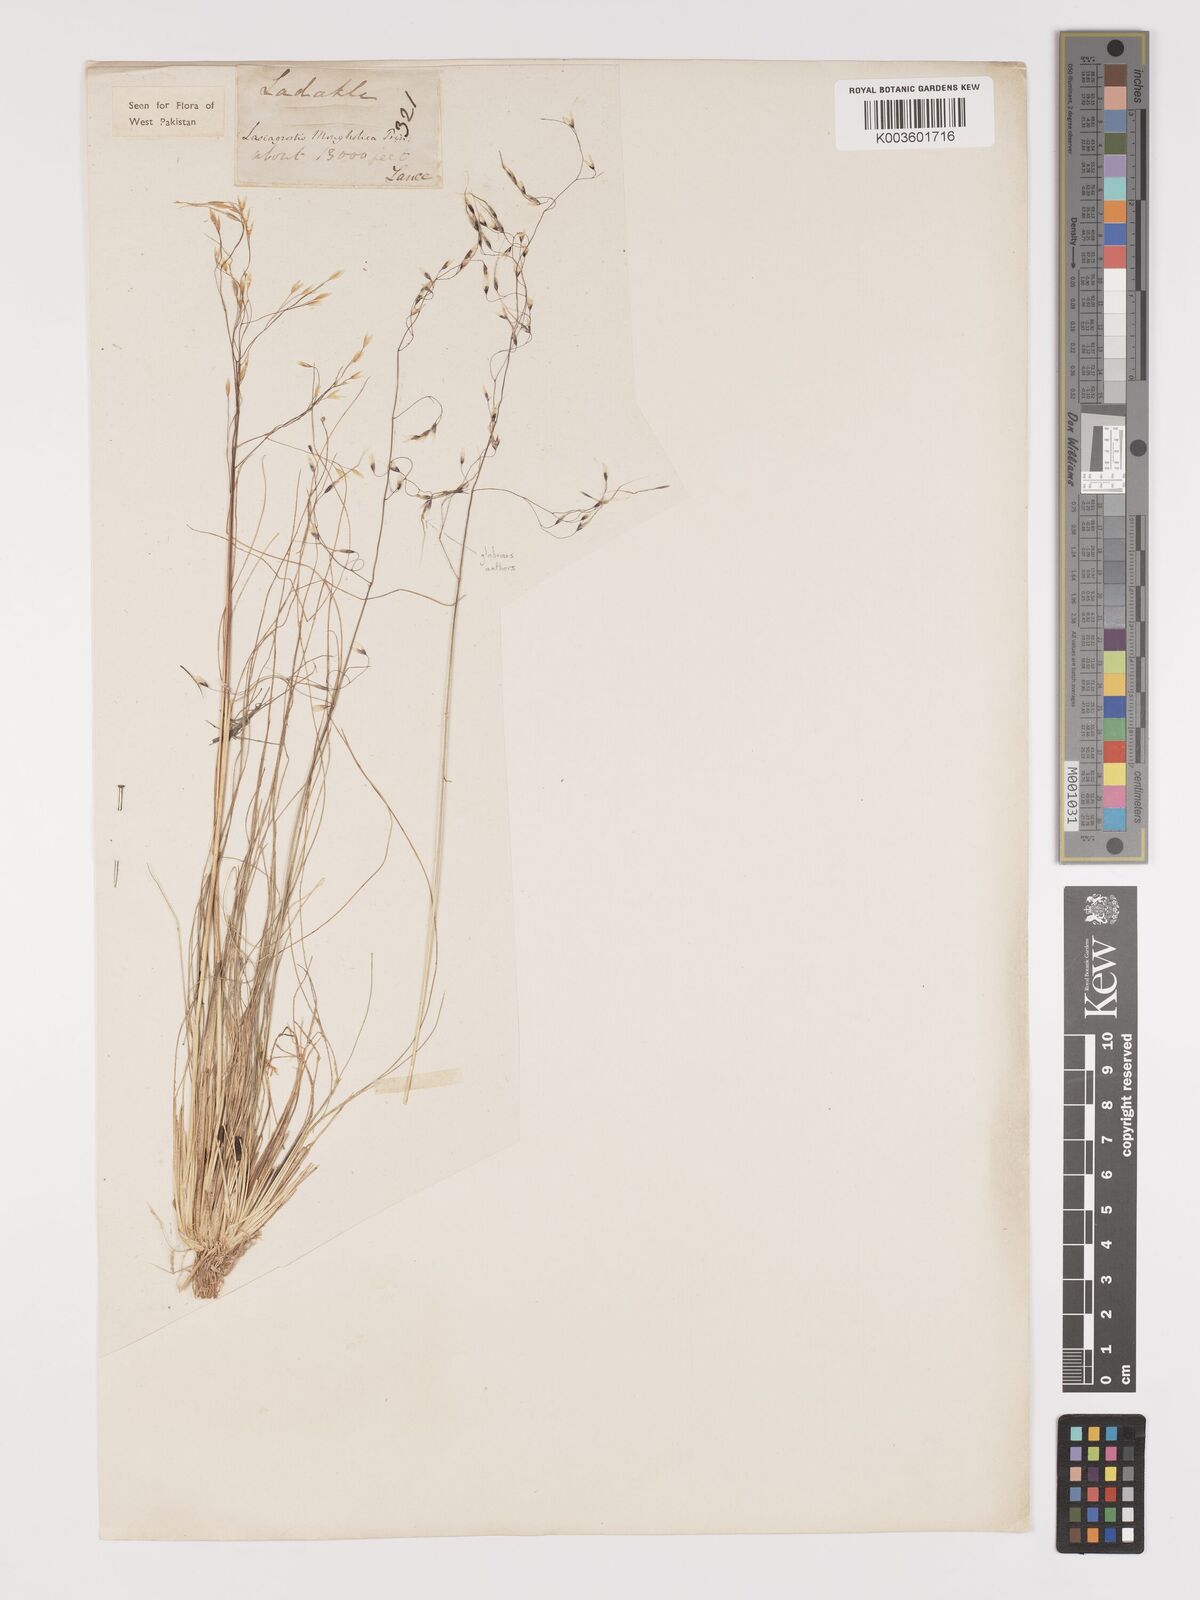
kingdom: Plantae
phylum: Tracheophyta
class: Liliopsida
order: Poales
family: Poaceae
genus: Ptilagrostis
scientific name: Ptilagrostis mongholica
